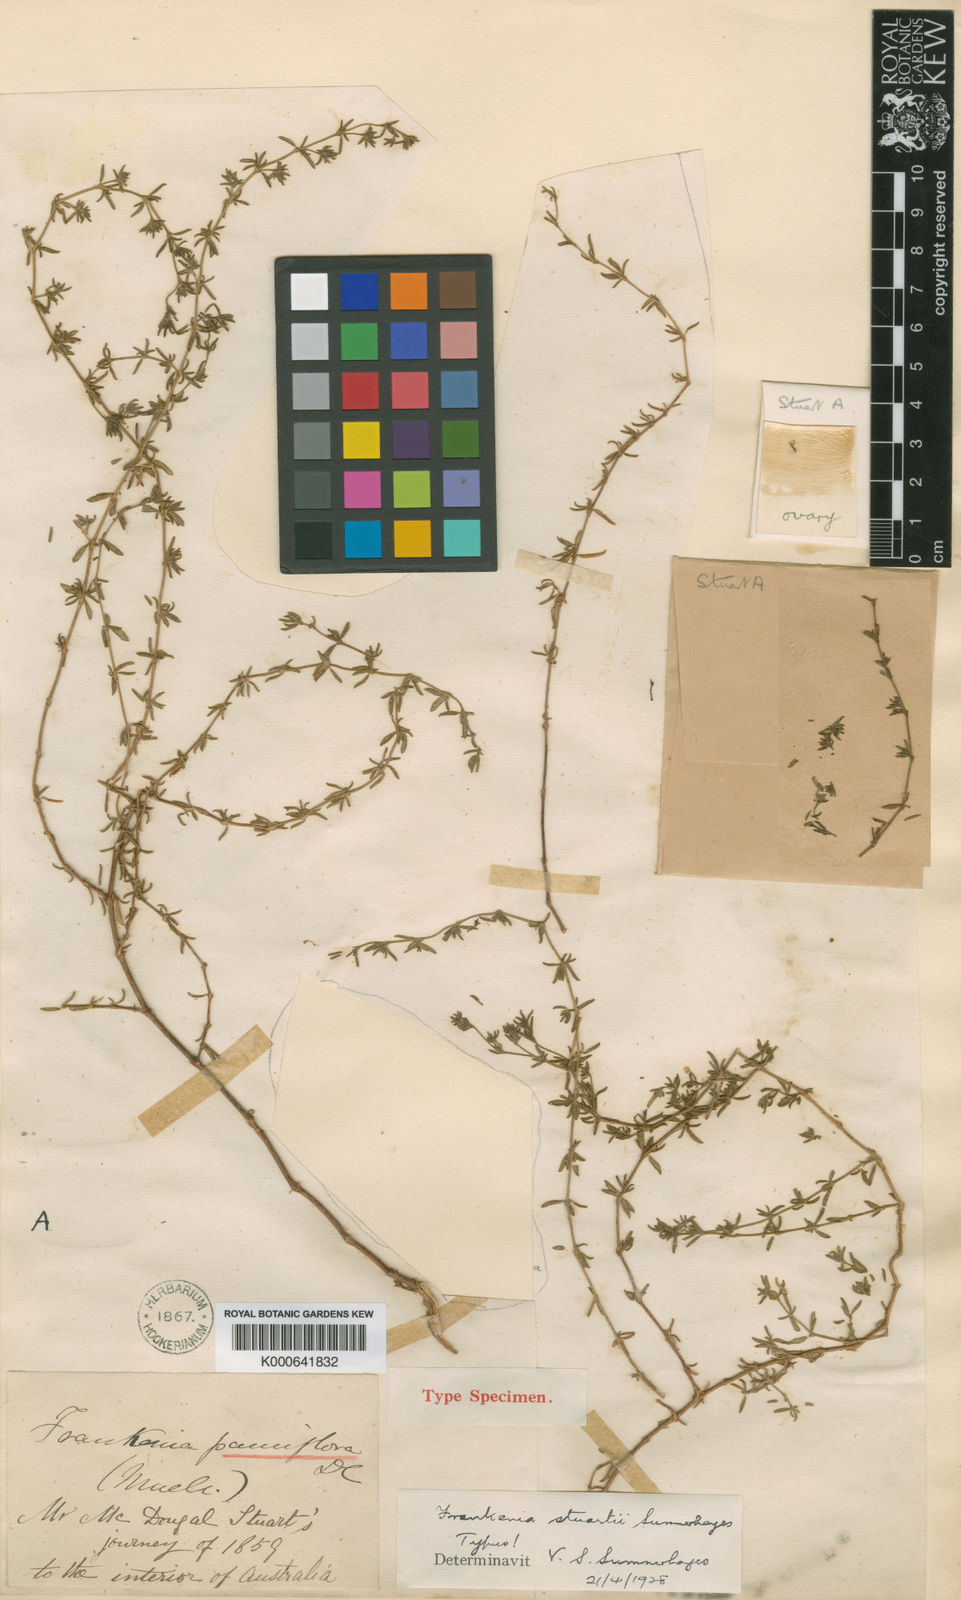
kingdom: Plantae
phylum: Tracheophyta
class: Magnoliopsida
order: Caryophyllales
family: Frankeniaceae
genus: Frankenia
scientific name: Frankenia stuartii
